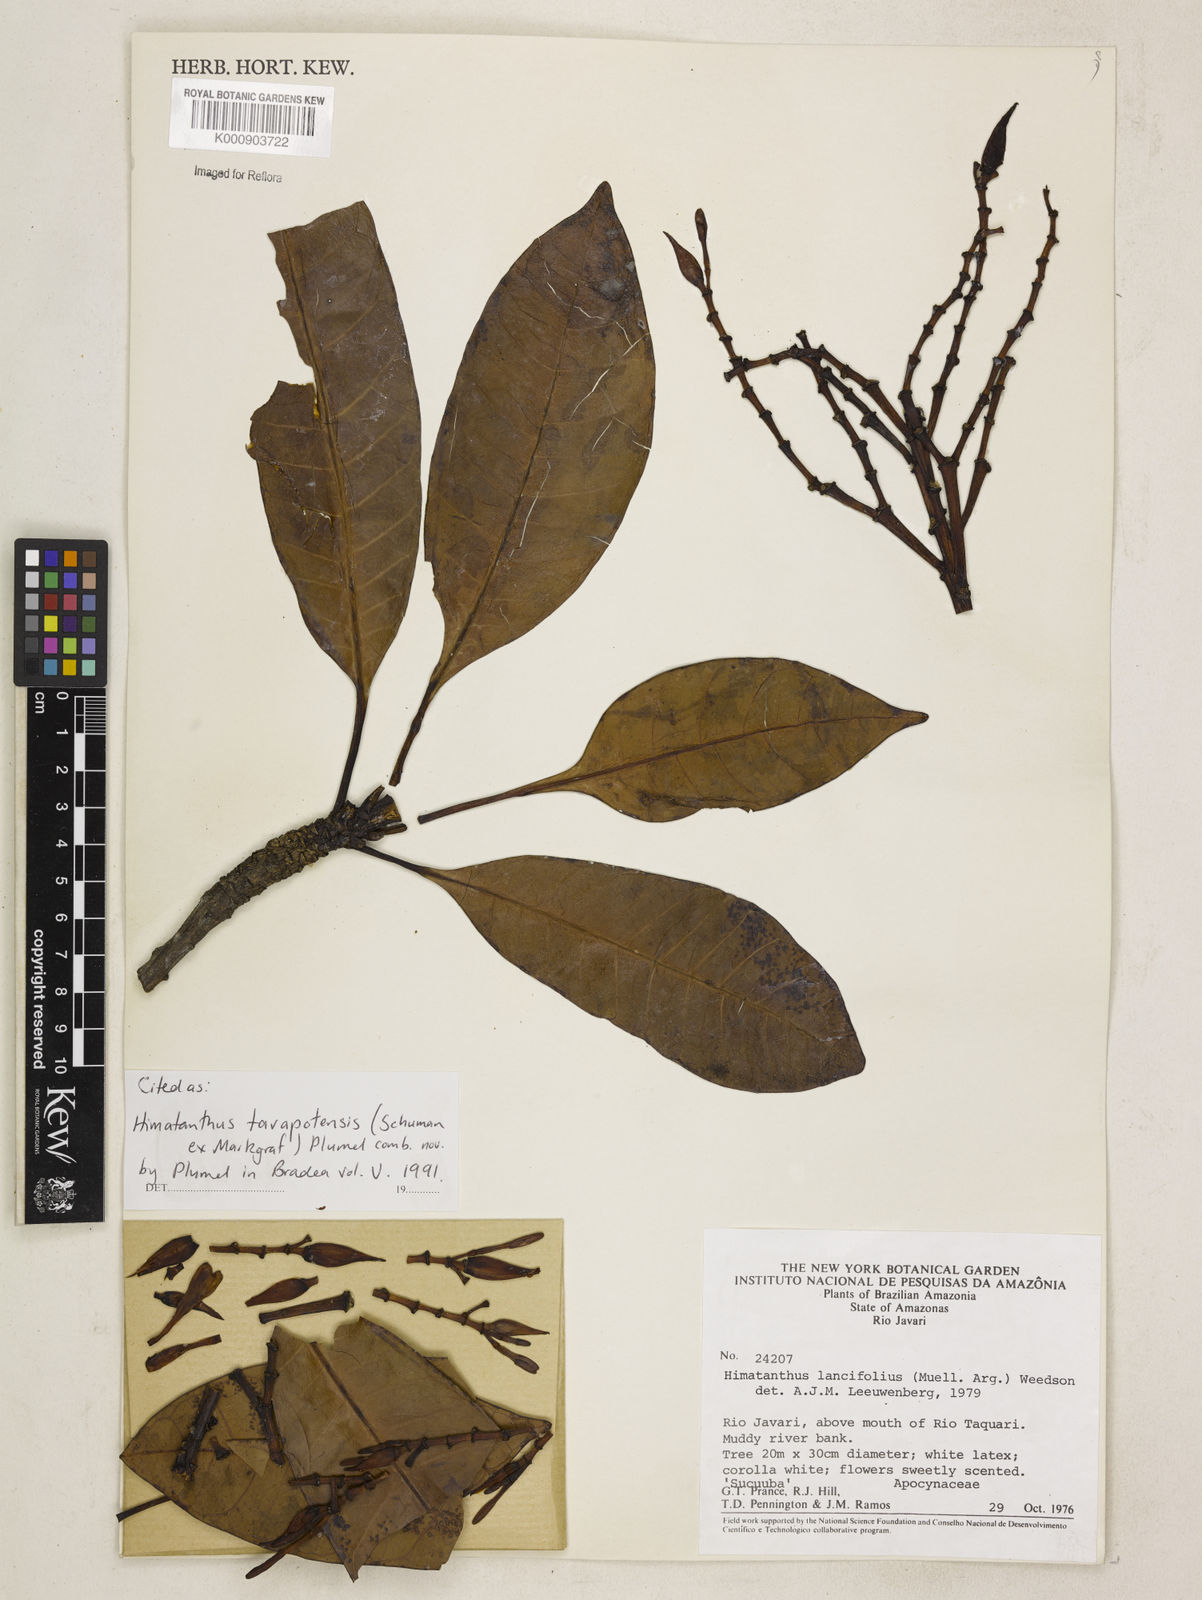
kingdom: Plantae
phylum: Tracheophyta
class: Magnoliopsida
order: Gentianales
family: Apocynaceae
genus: Himatanthus
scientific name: Himatanthus tarapotensis
